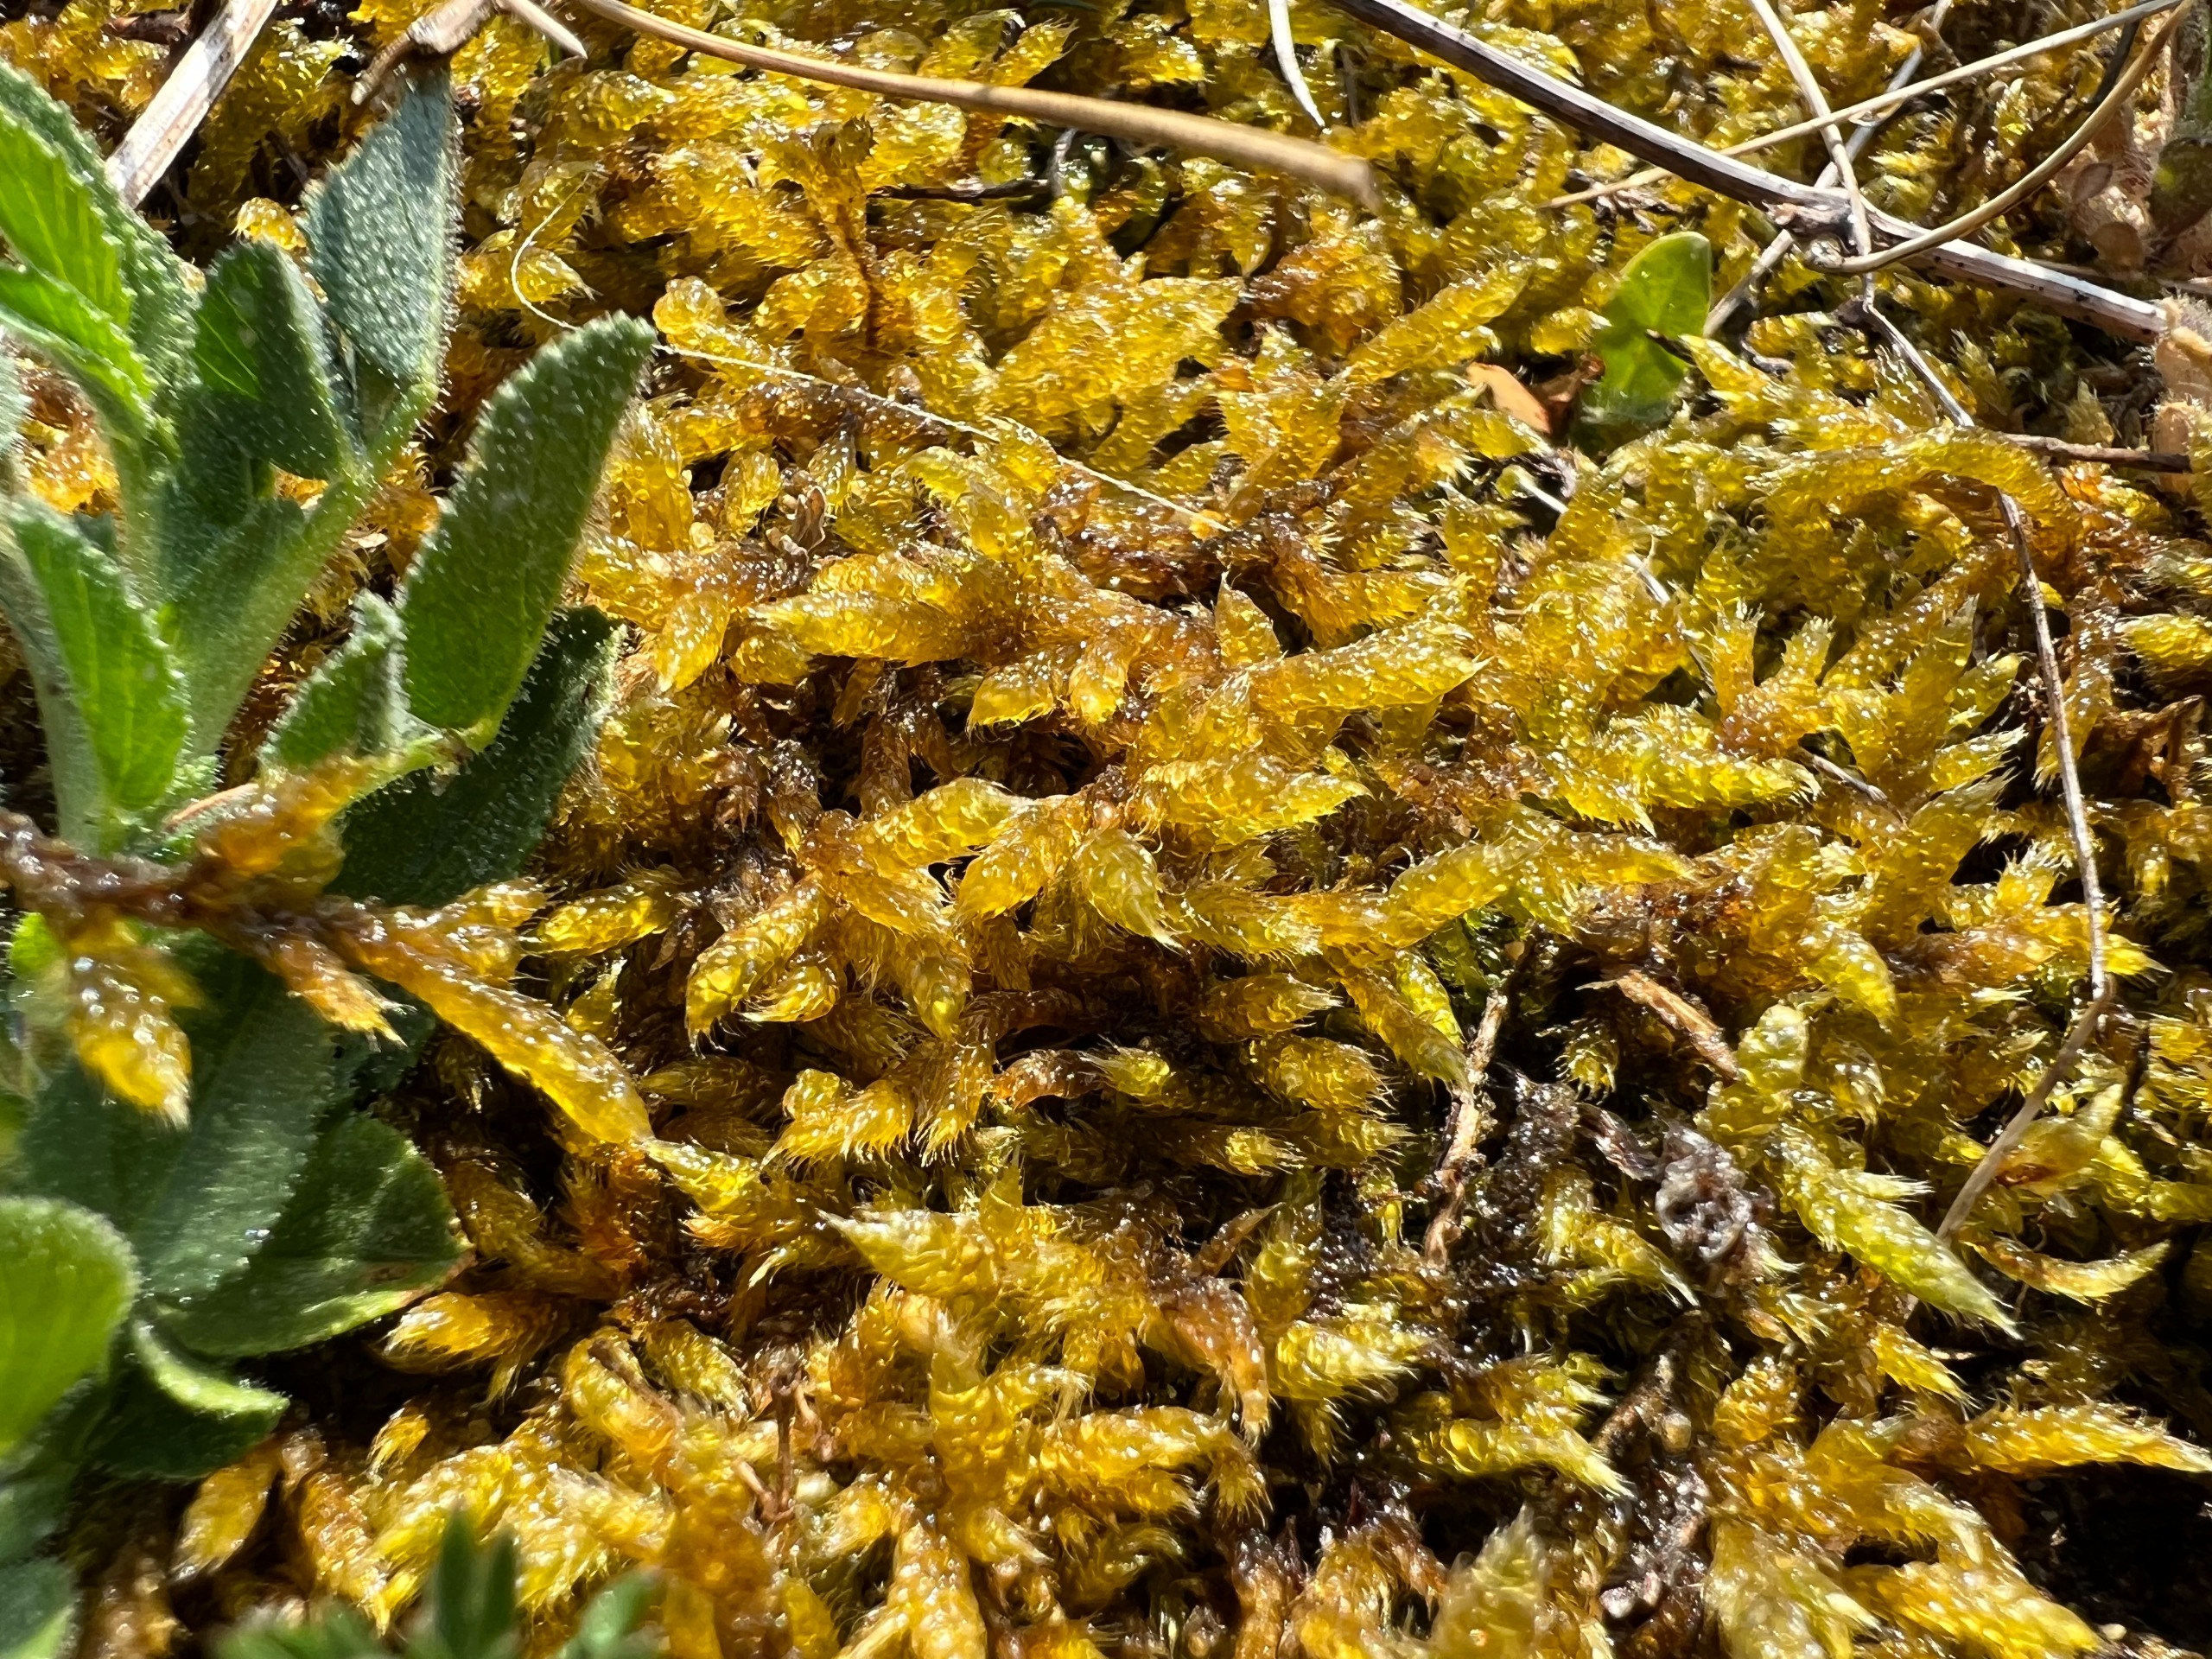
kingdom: Plantae
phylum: Bryophyta
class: Bryopsida
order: Hypnales
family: Hypnaceae
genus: Hypnum
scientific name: Hypnum cupressiforme
